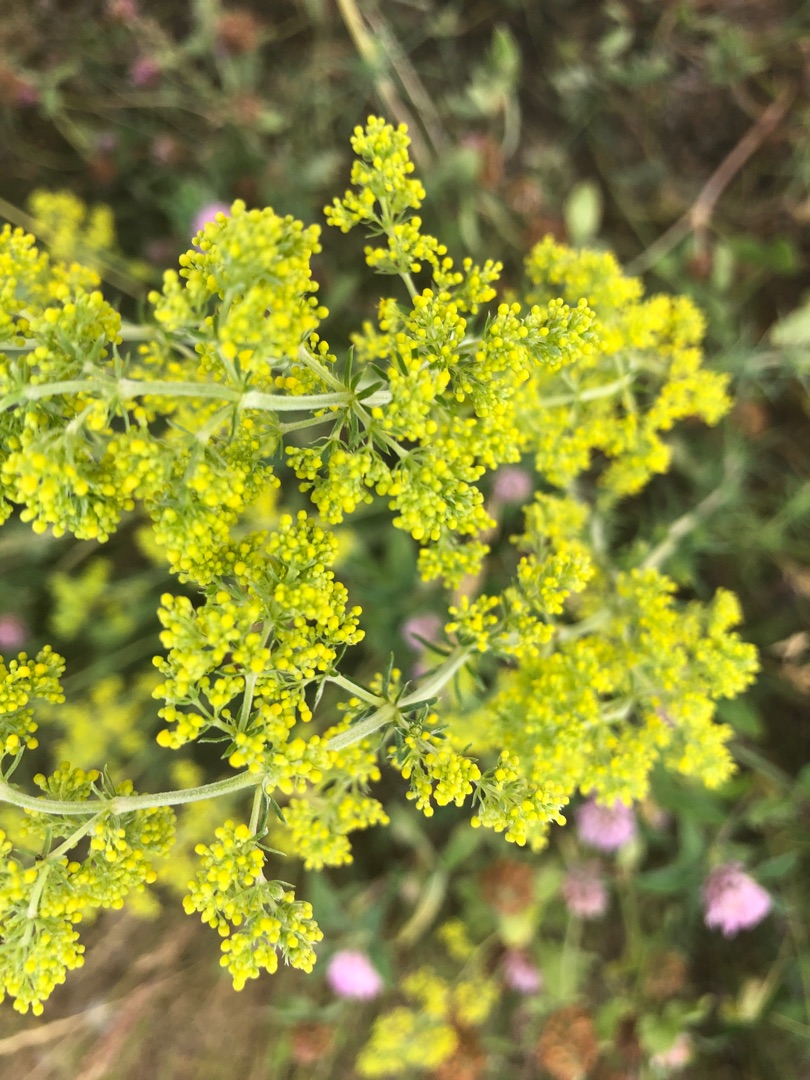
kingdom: Plantae
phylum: Tracheophyta
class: Magnoliopsida
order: Gentianales
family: Rubiaceae
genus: Galium
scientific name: Galium verum
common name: Gul snerre
